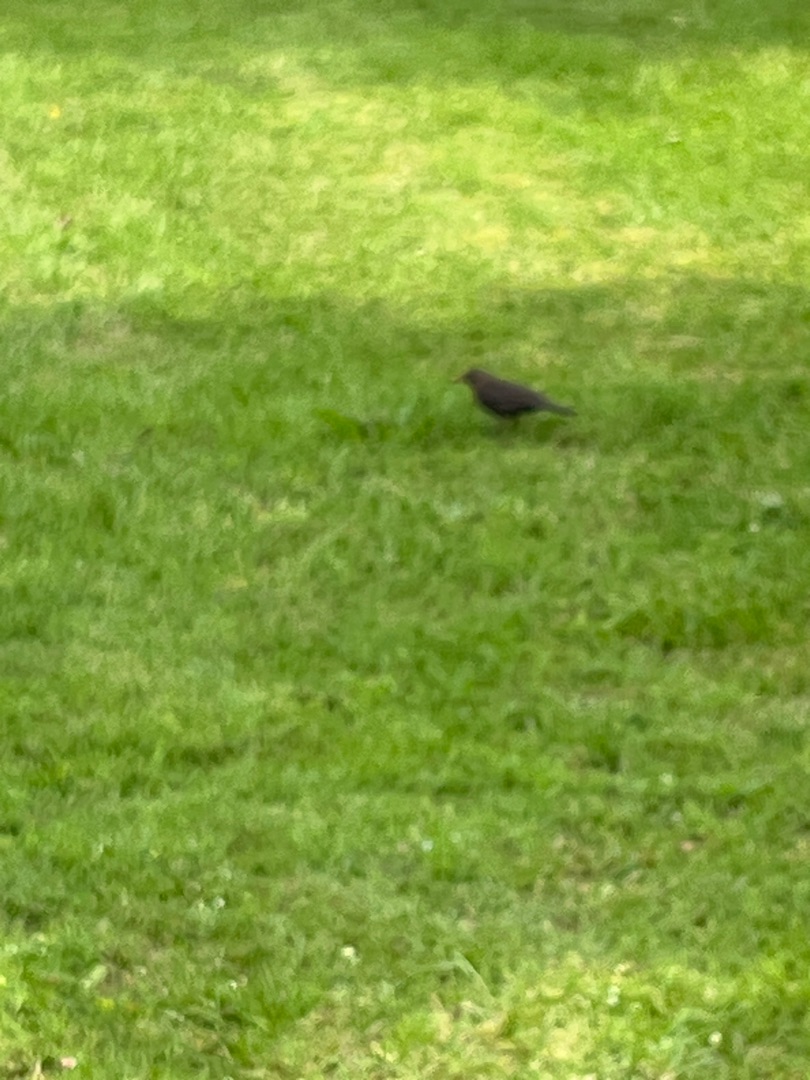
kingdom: Animalia
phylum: Chordata
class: Aves
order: Passeriformes
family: Turdidae
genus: Turdus
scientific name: Turdus merula
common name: Solsort
